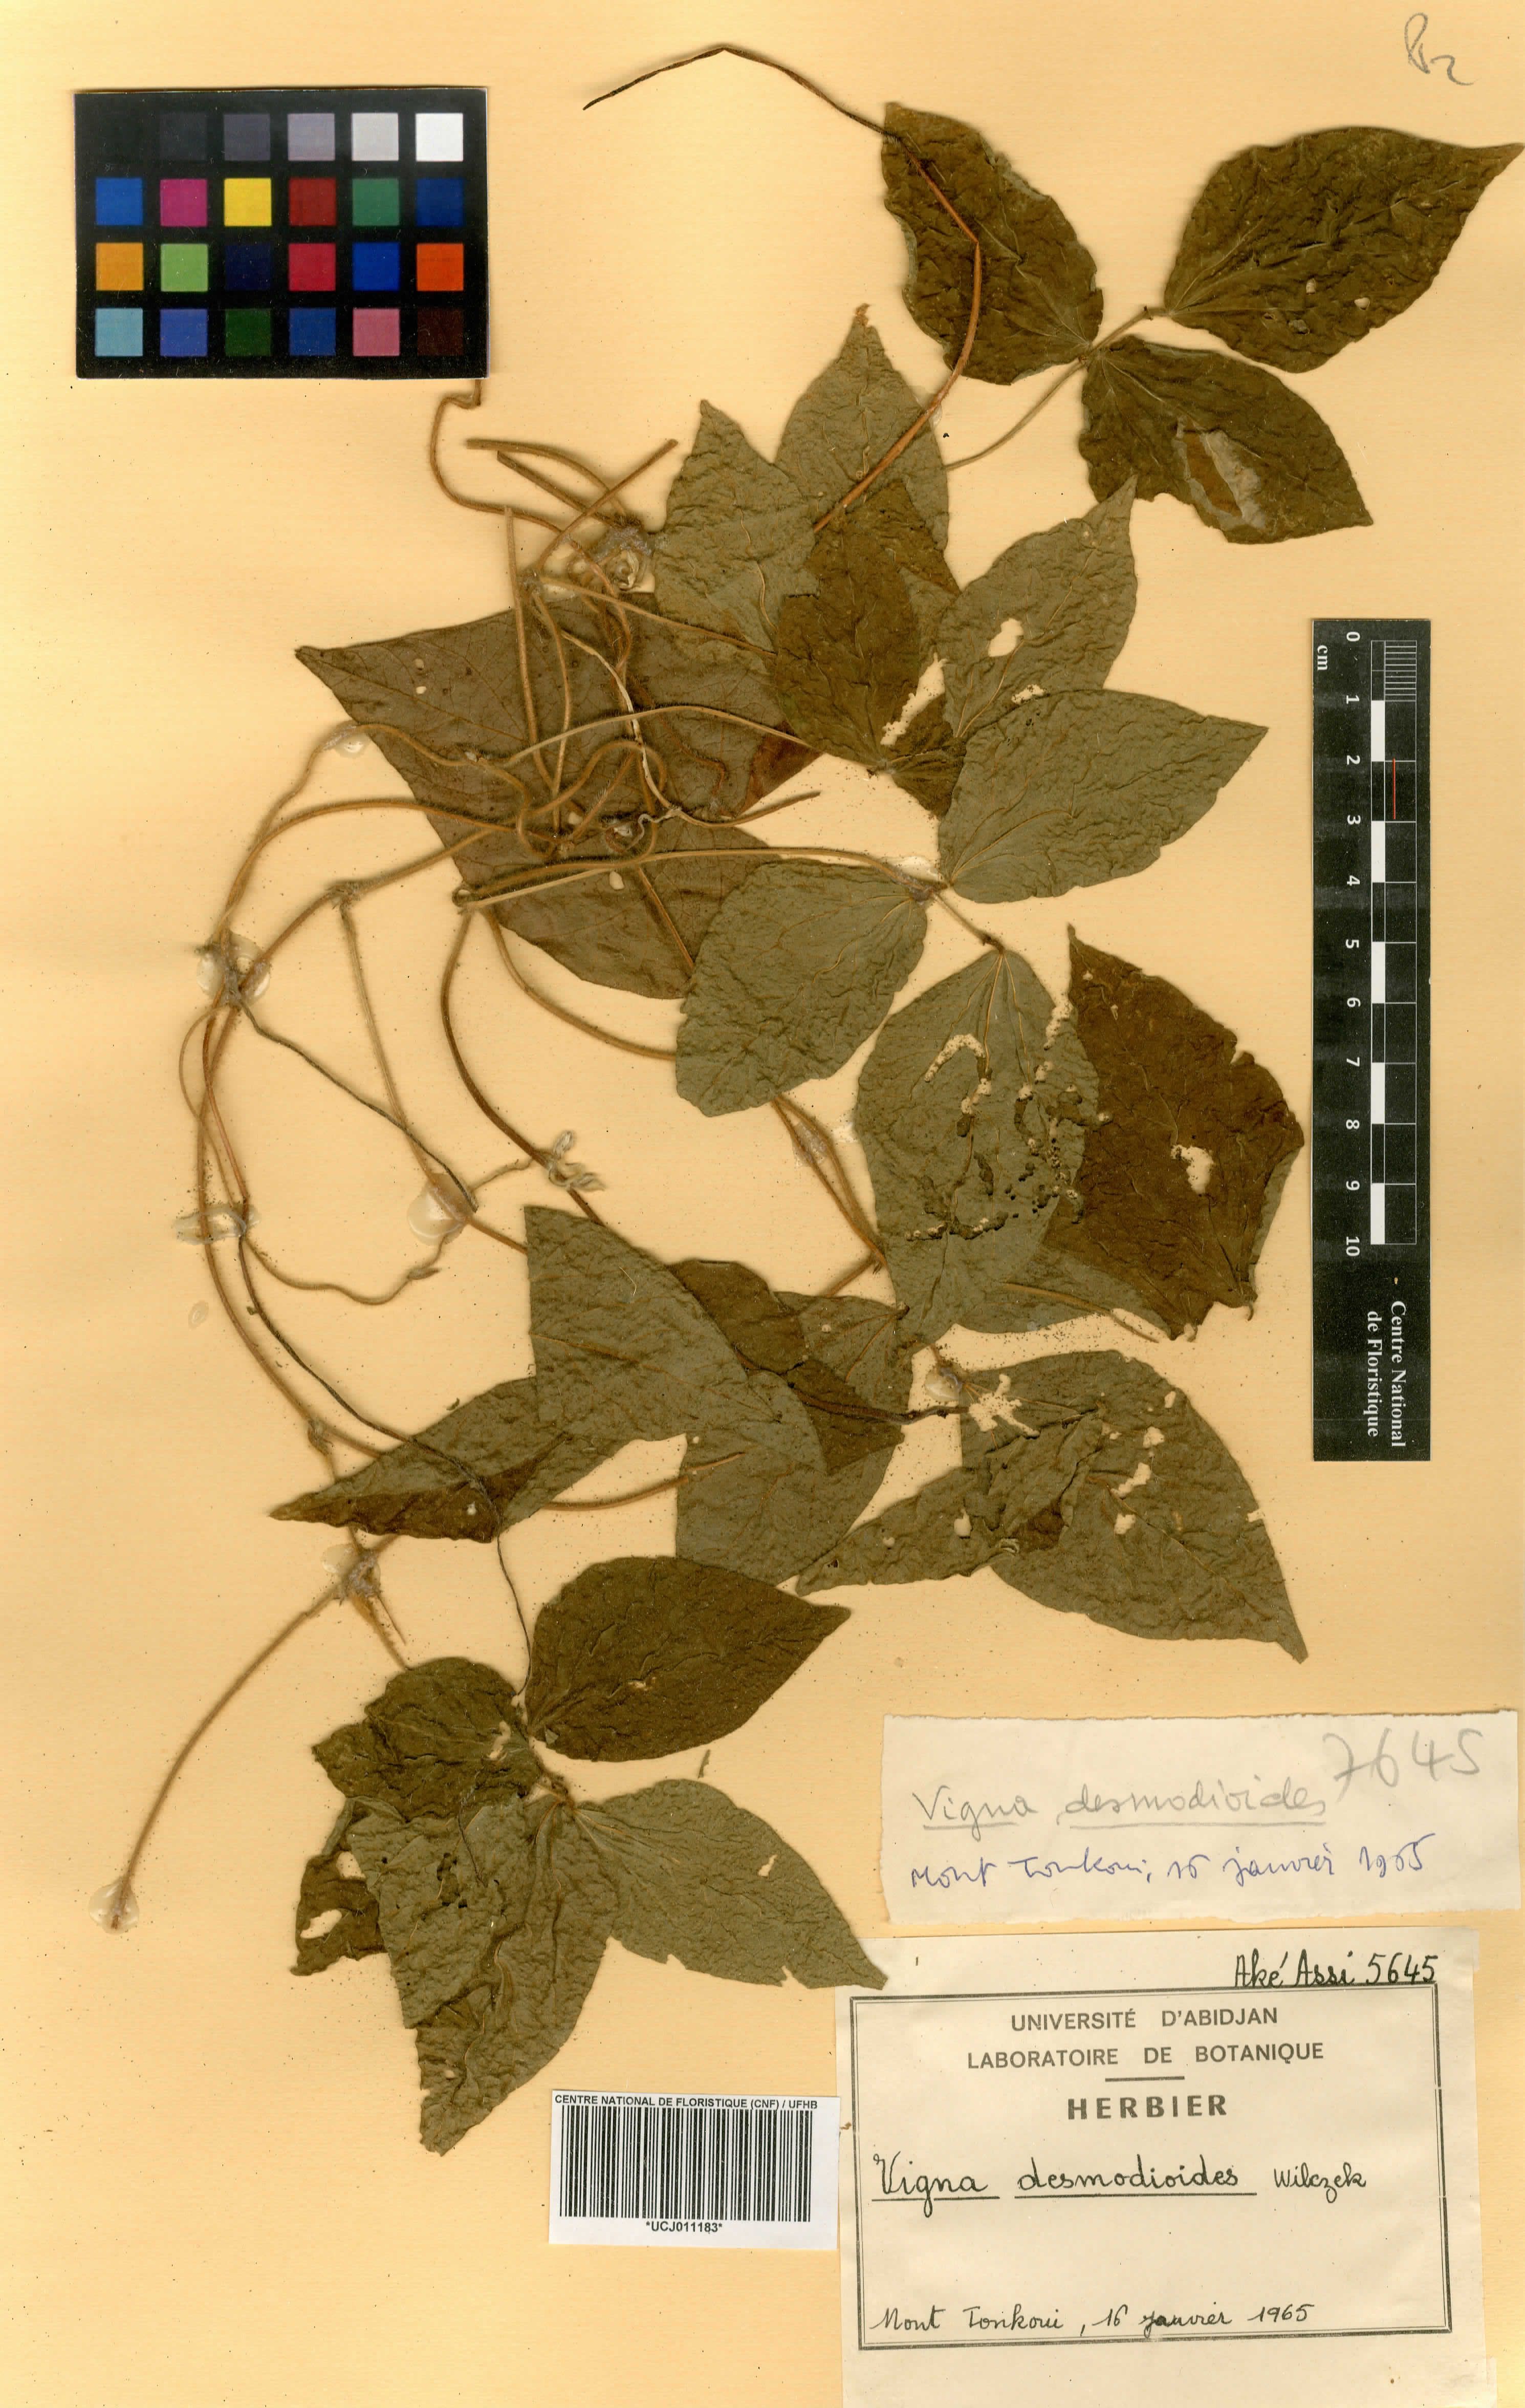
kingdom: Plantae
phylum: Tracheophyta
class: Magnoliopsida
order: Fabales
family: Fabaceae
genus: Vigna
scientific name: Vigna gracilis
